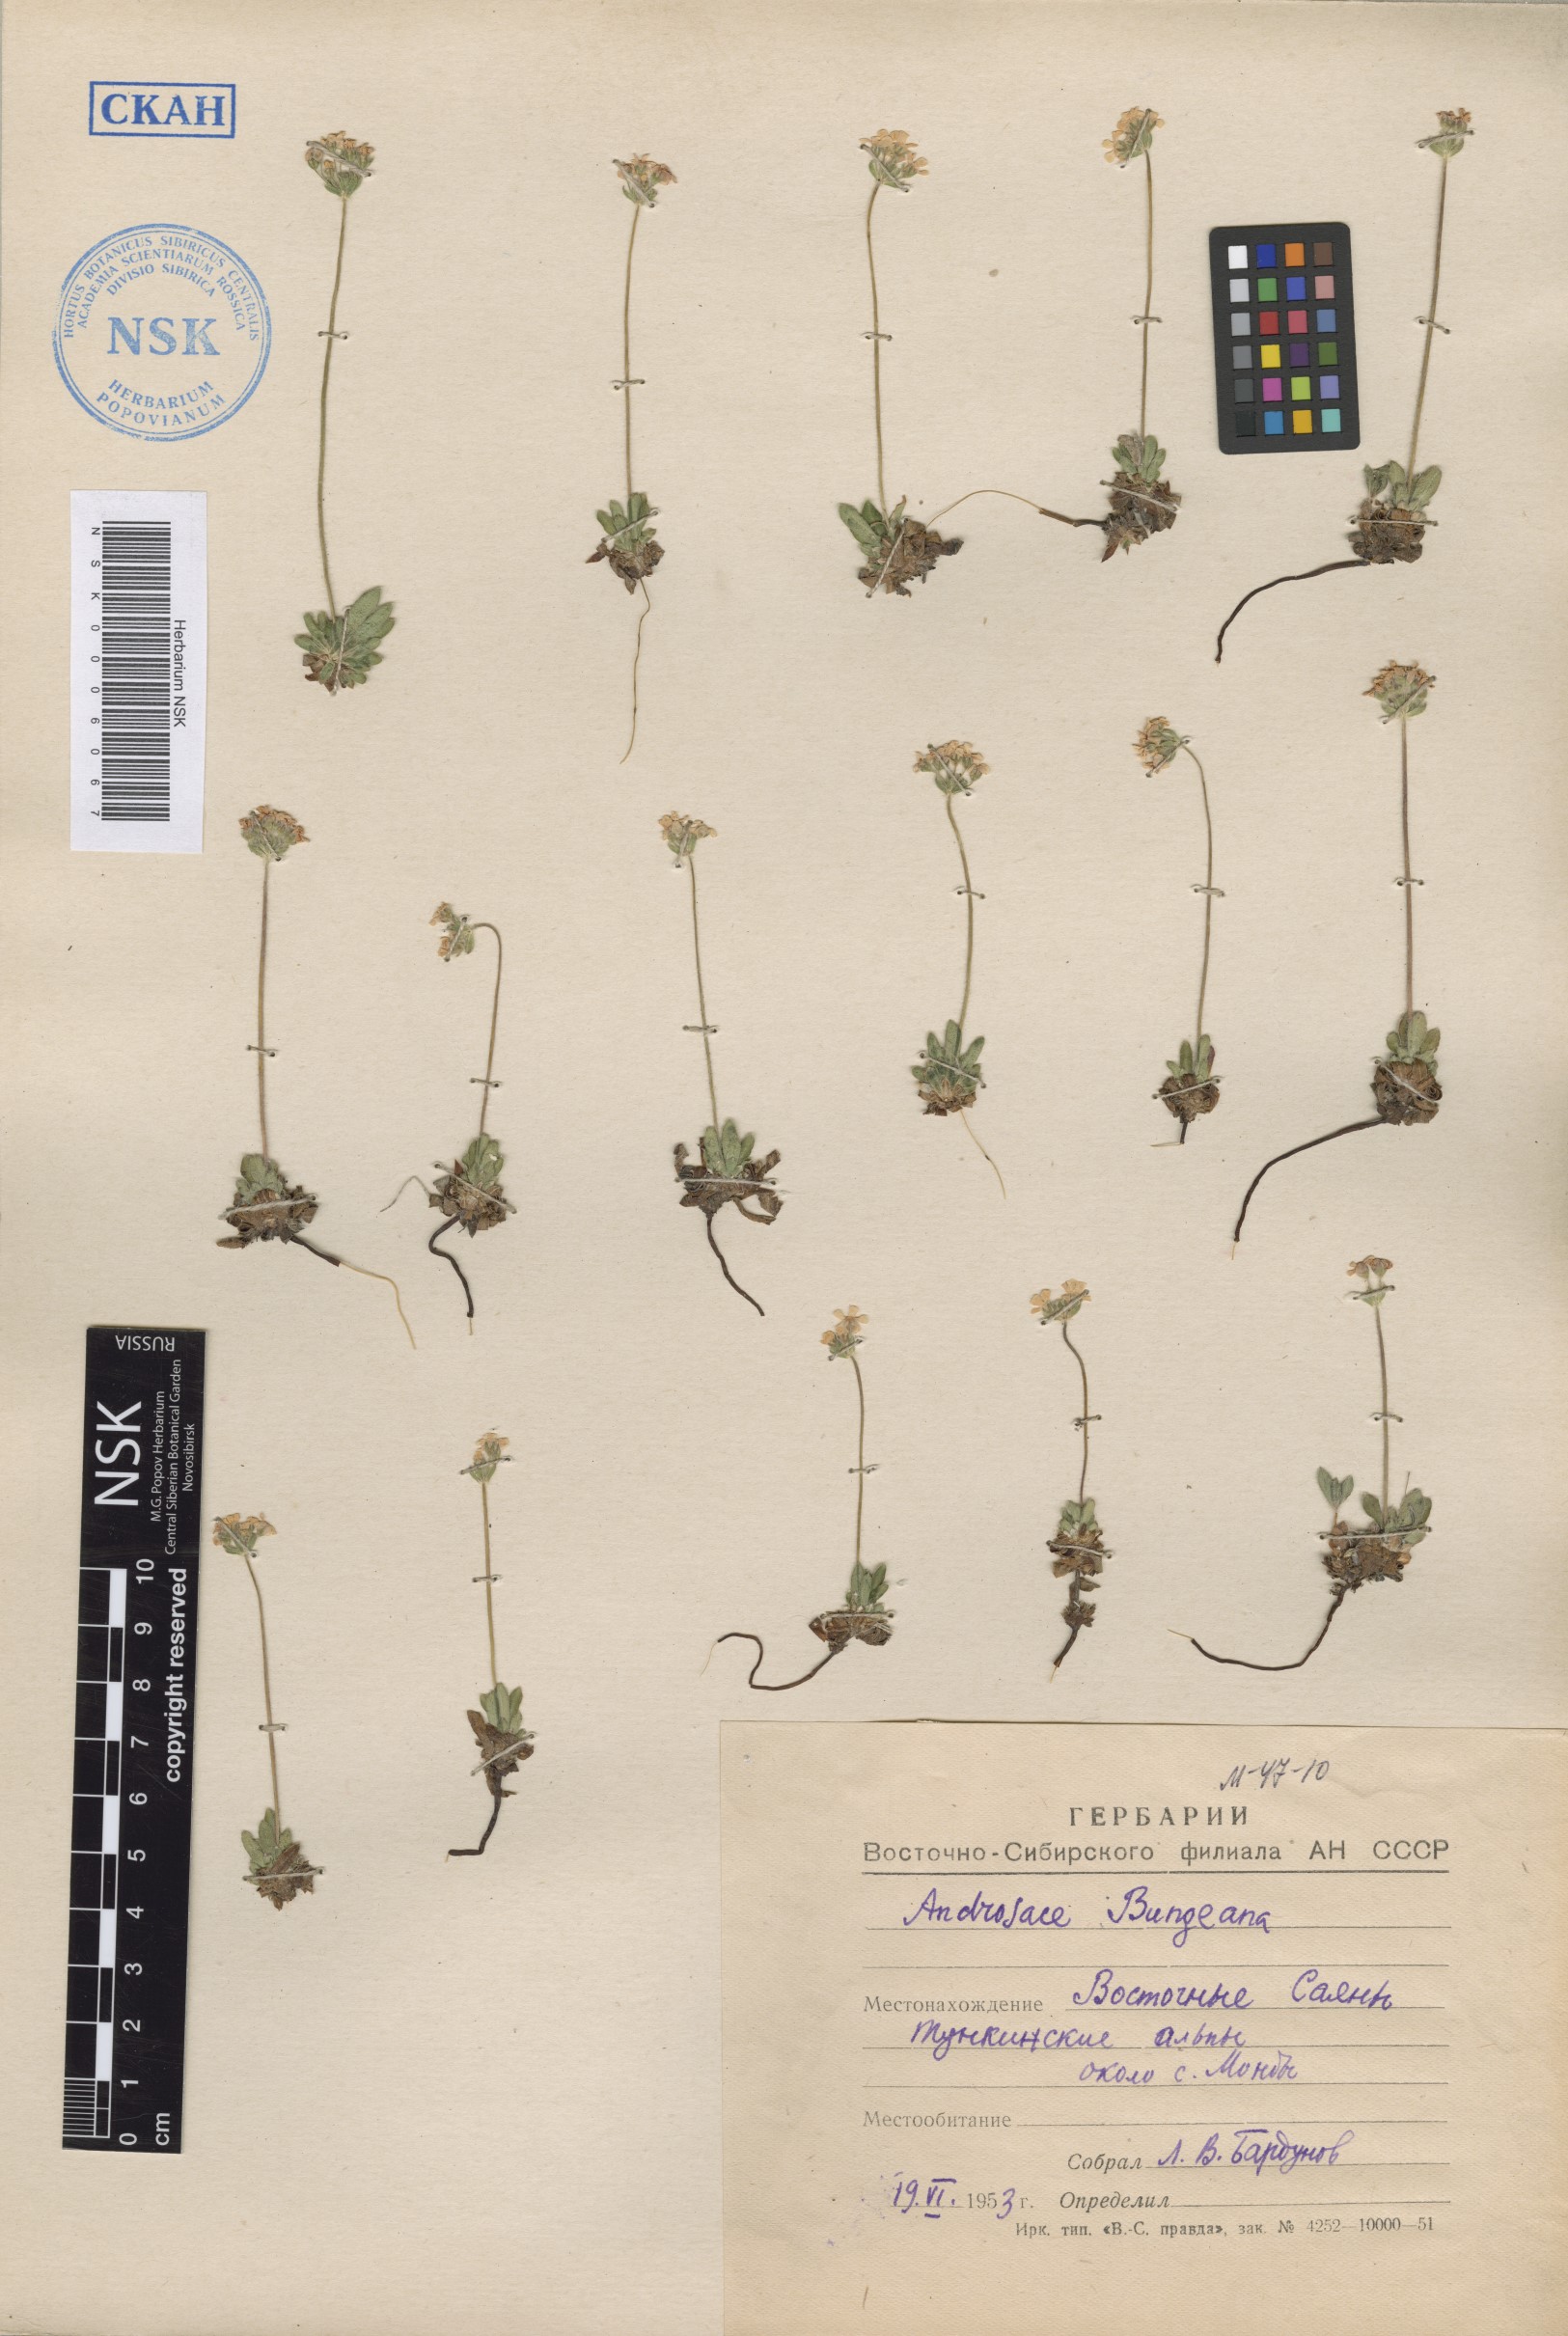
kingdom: Plantae
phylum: Tracheophyta
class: Magnoliopsida
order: Ericales
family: Primulaceae
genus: Androsace
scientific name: Androsace bungeana
